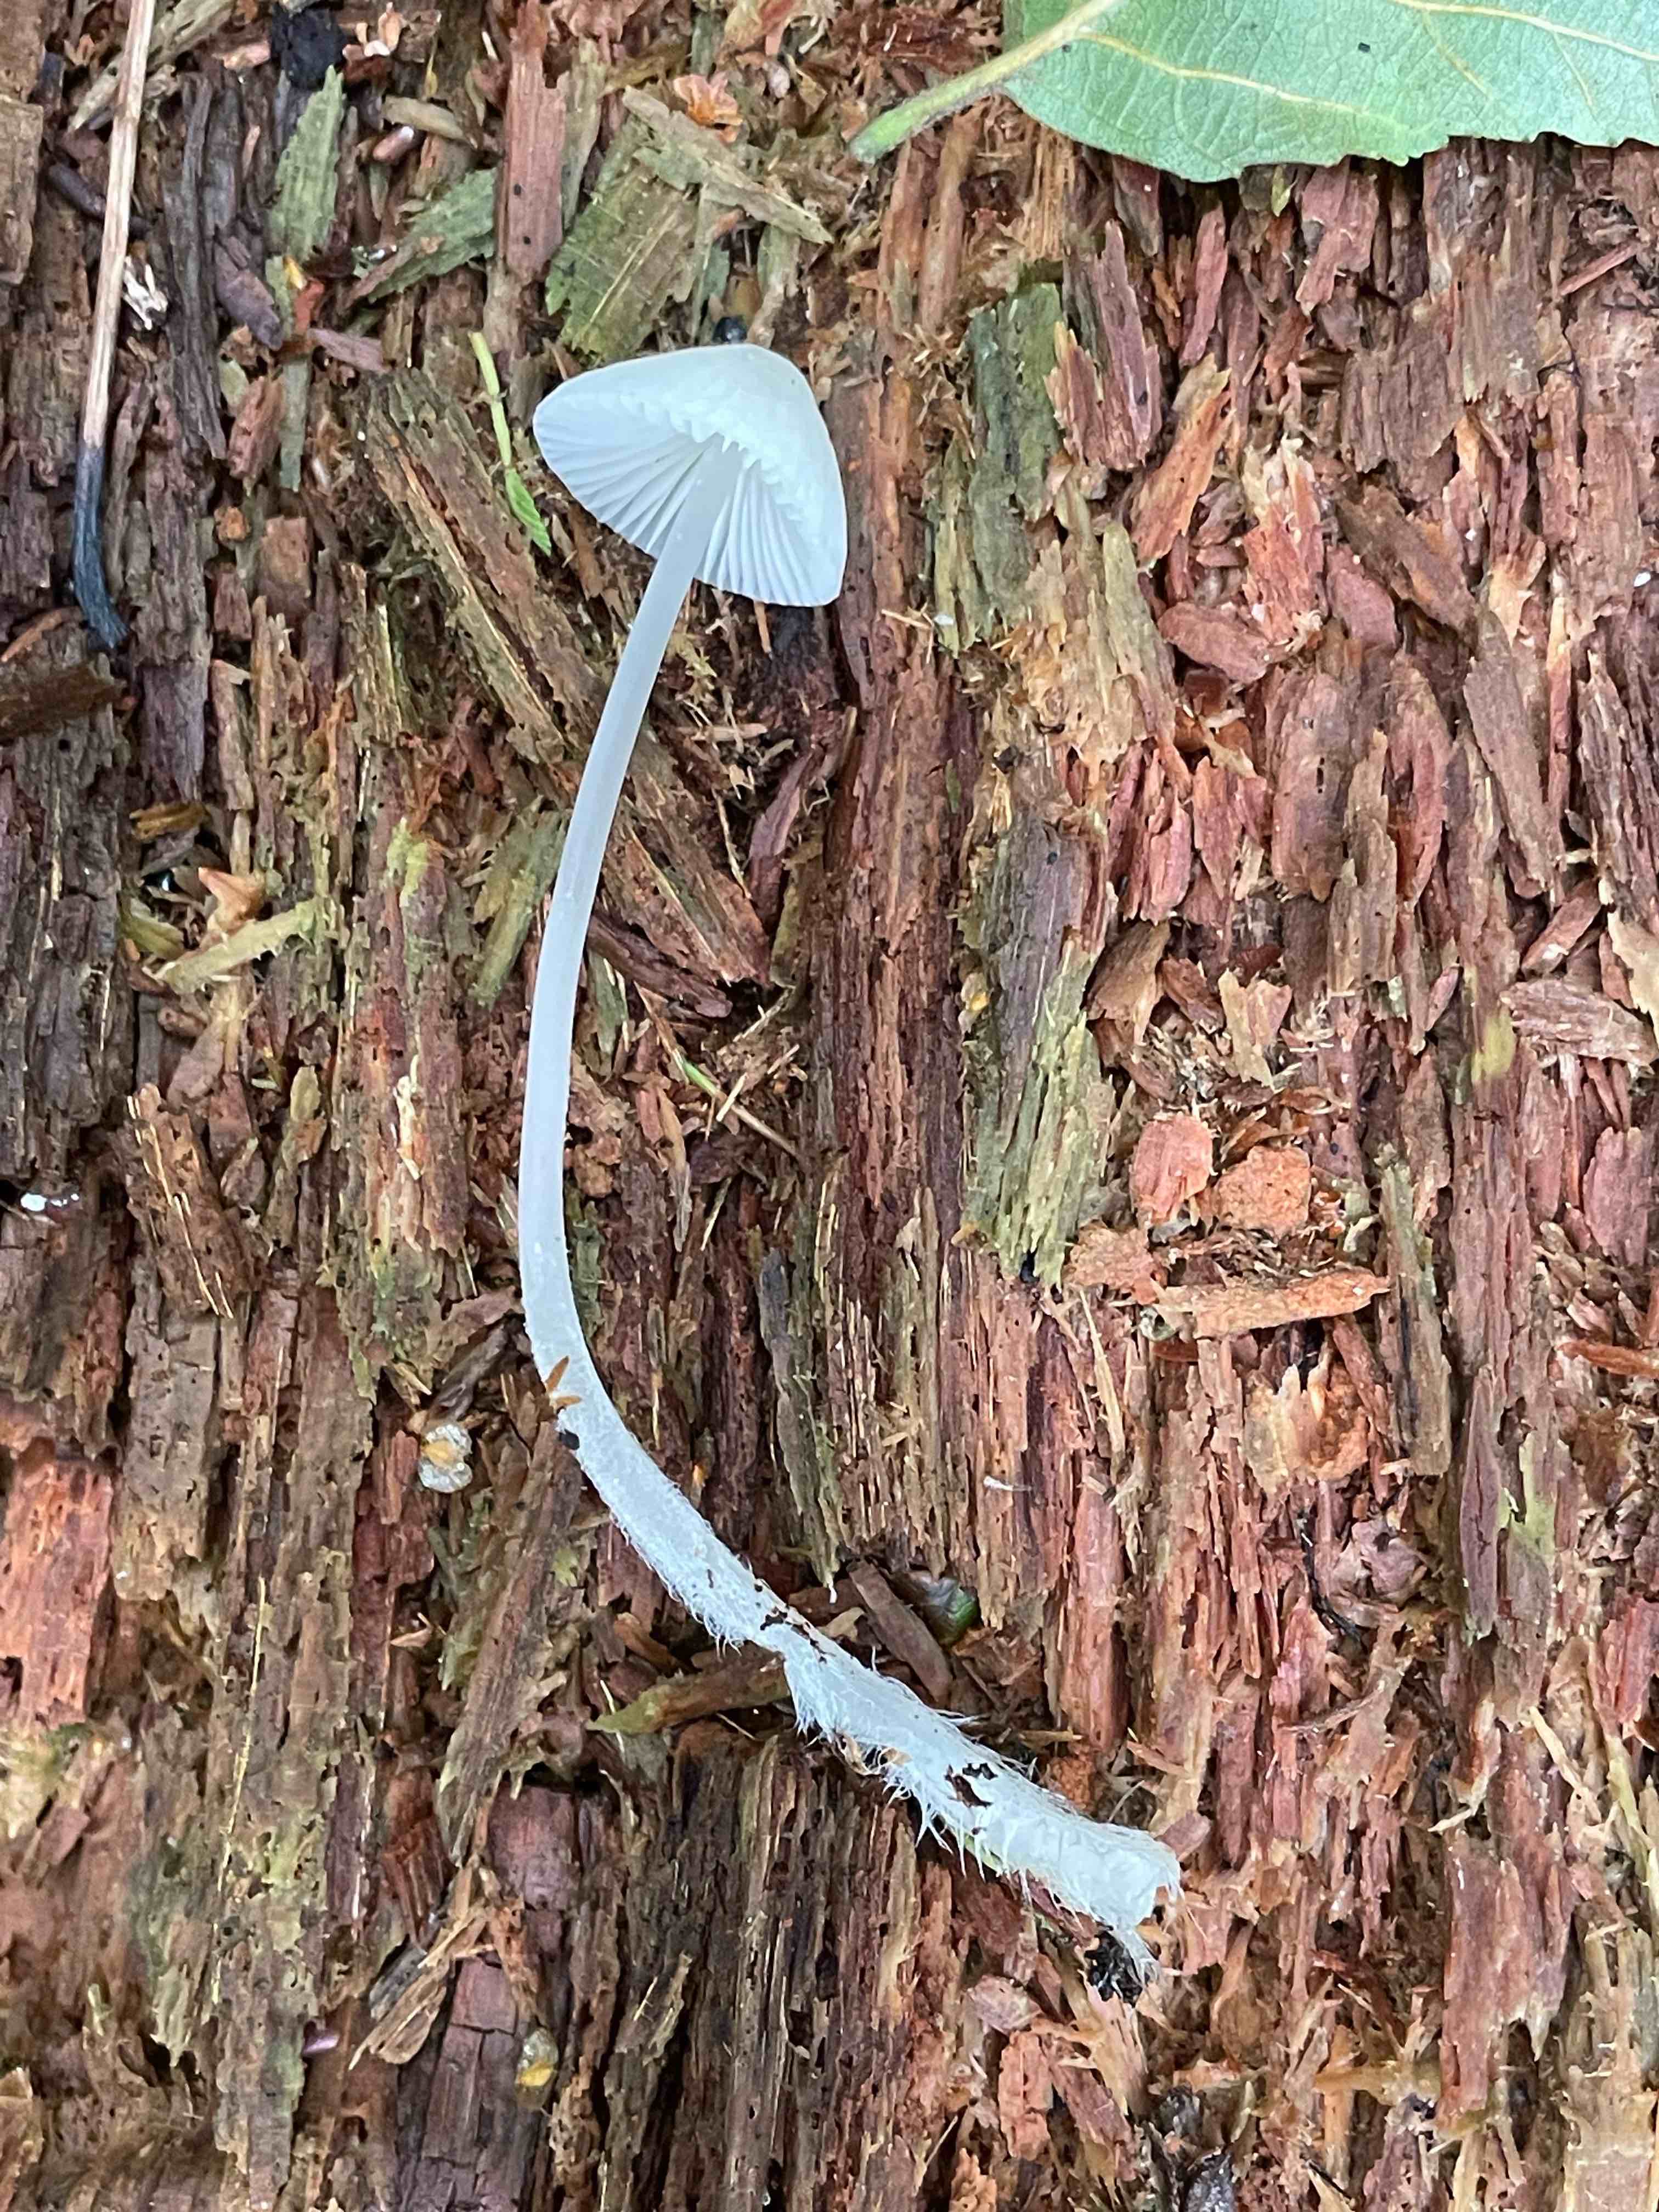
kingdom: Fungi
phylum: Basidiomycota
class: Agaricomycetes
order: Agaricales
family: Mycenaceae
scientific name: Mycenaceae
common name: huesvampfamilien
